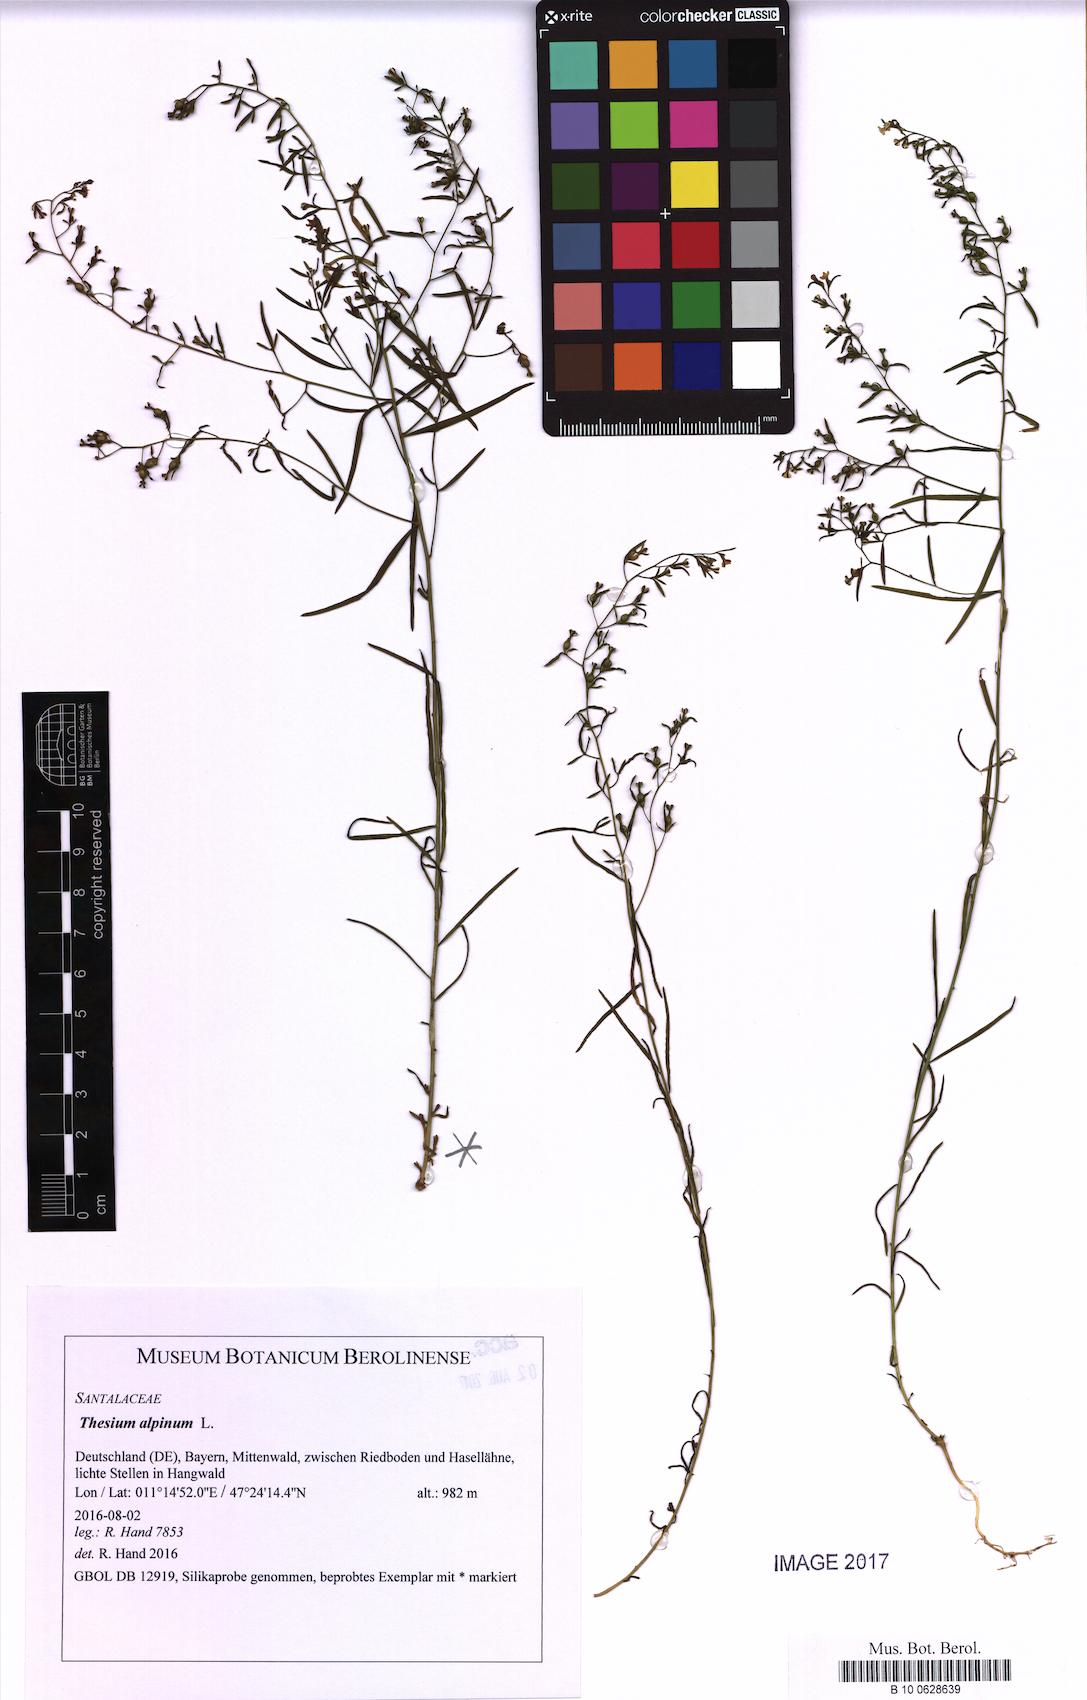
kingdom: Plantae
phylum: Tracheophyta
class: Magnoliopsida
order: Santalales
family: Thesiaceae
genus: Thesium
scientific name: Thesium alpinum
